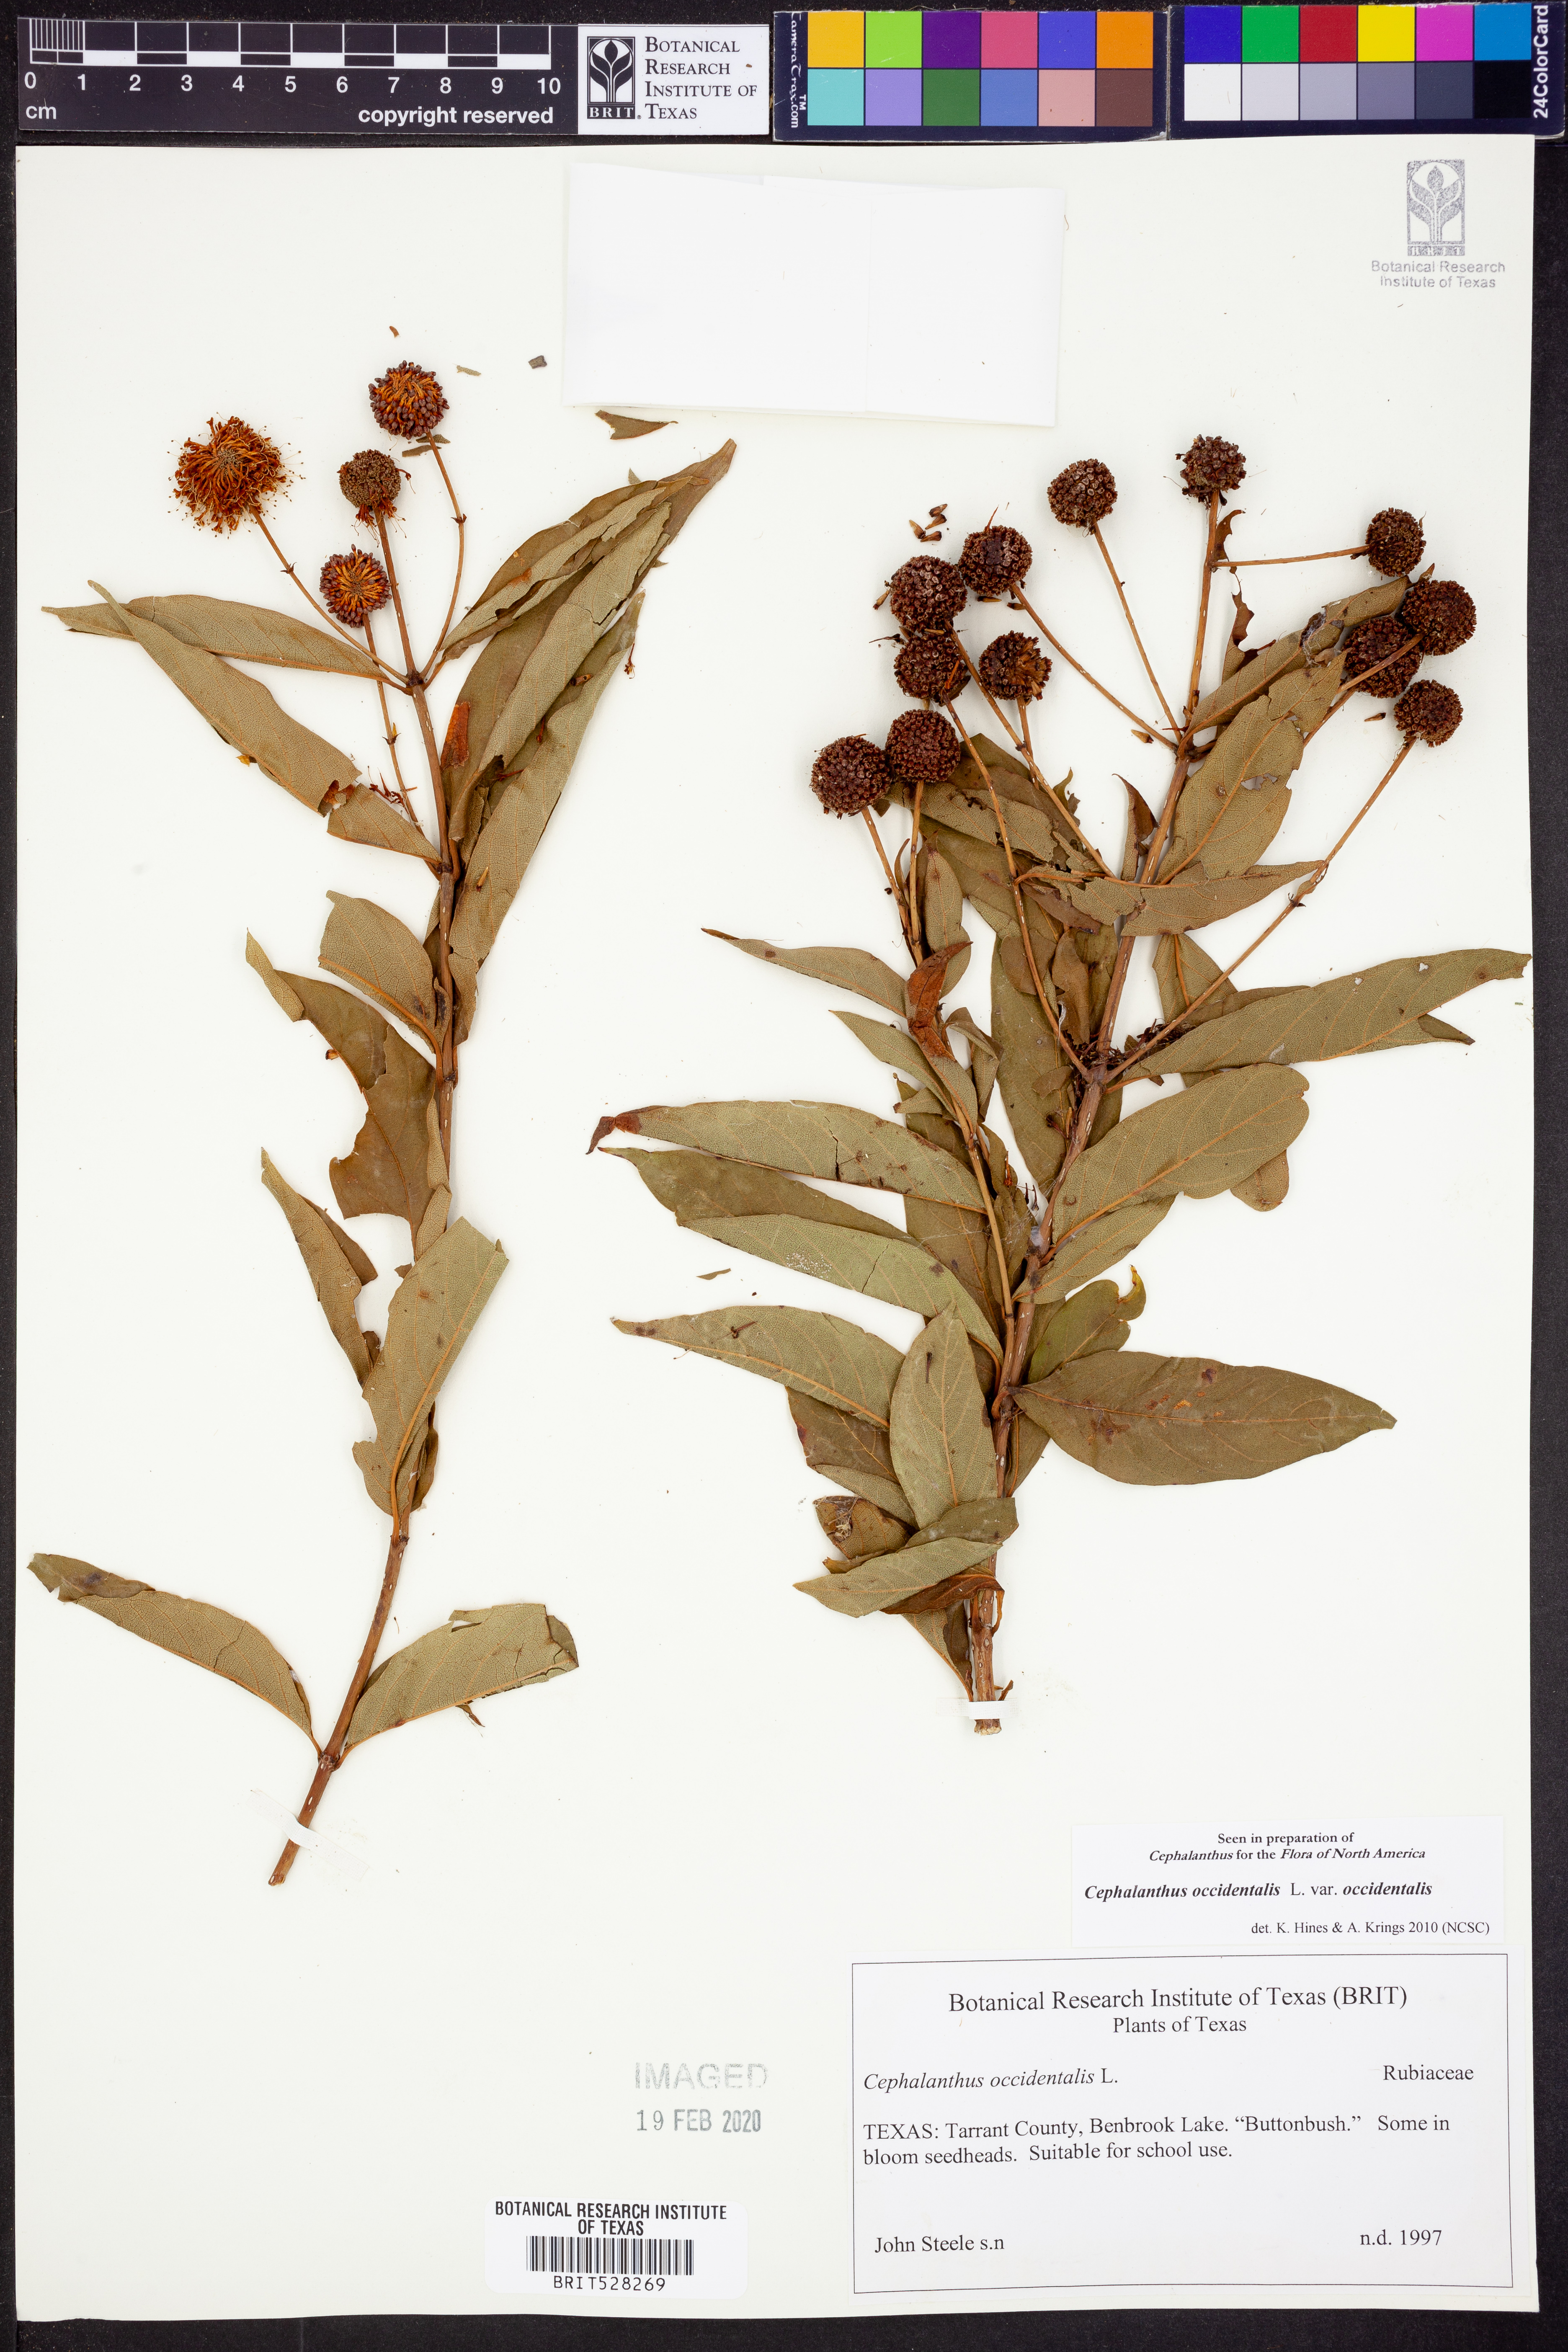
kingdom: Plantae
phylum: Tracheophyta
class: Magnoliopsida
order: Gentianales
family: Rubiaceae
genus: Cephalanthus
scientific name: Cephalanthus occidentalis
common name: Button-willow
